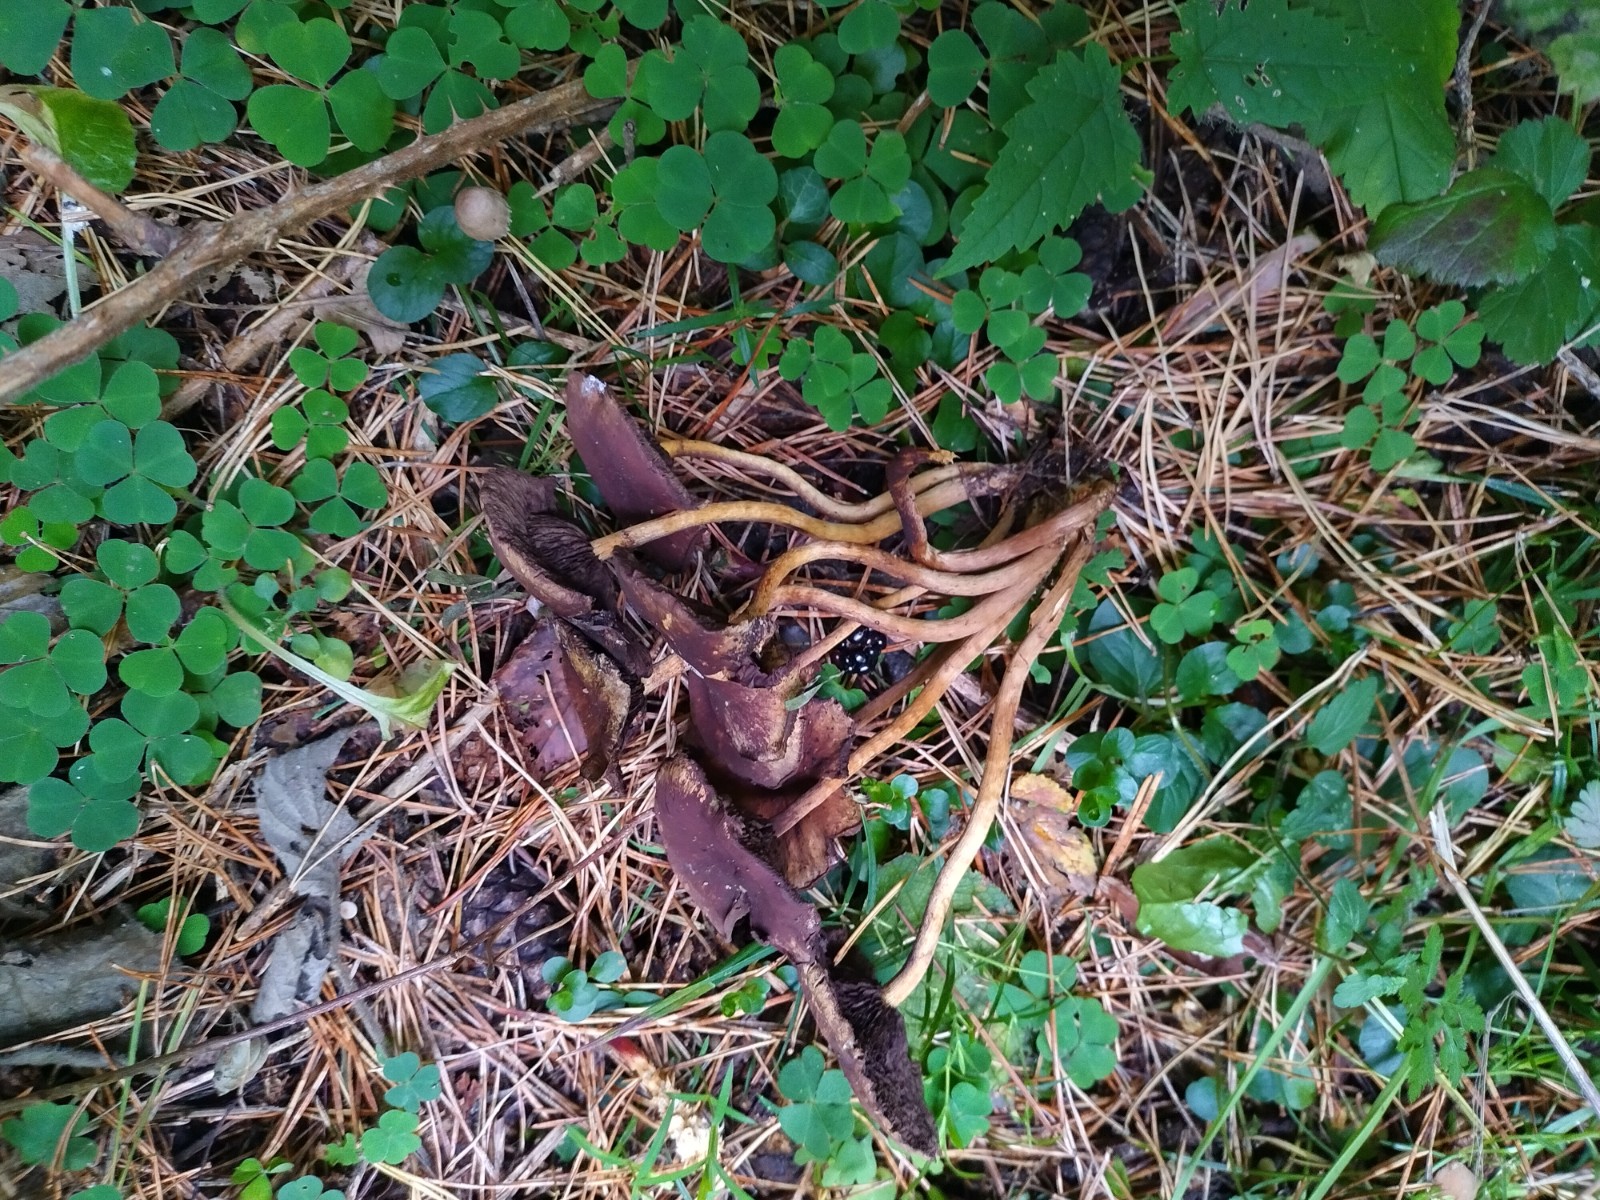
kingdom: Fungi
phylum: Basidiomycota
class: Agaricomycetes
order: Agaricales
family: Psathyrellaceae
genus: Psathyrella
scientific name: Psathyrella piluliformis
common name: lysstokket mørkhat
